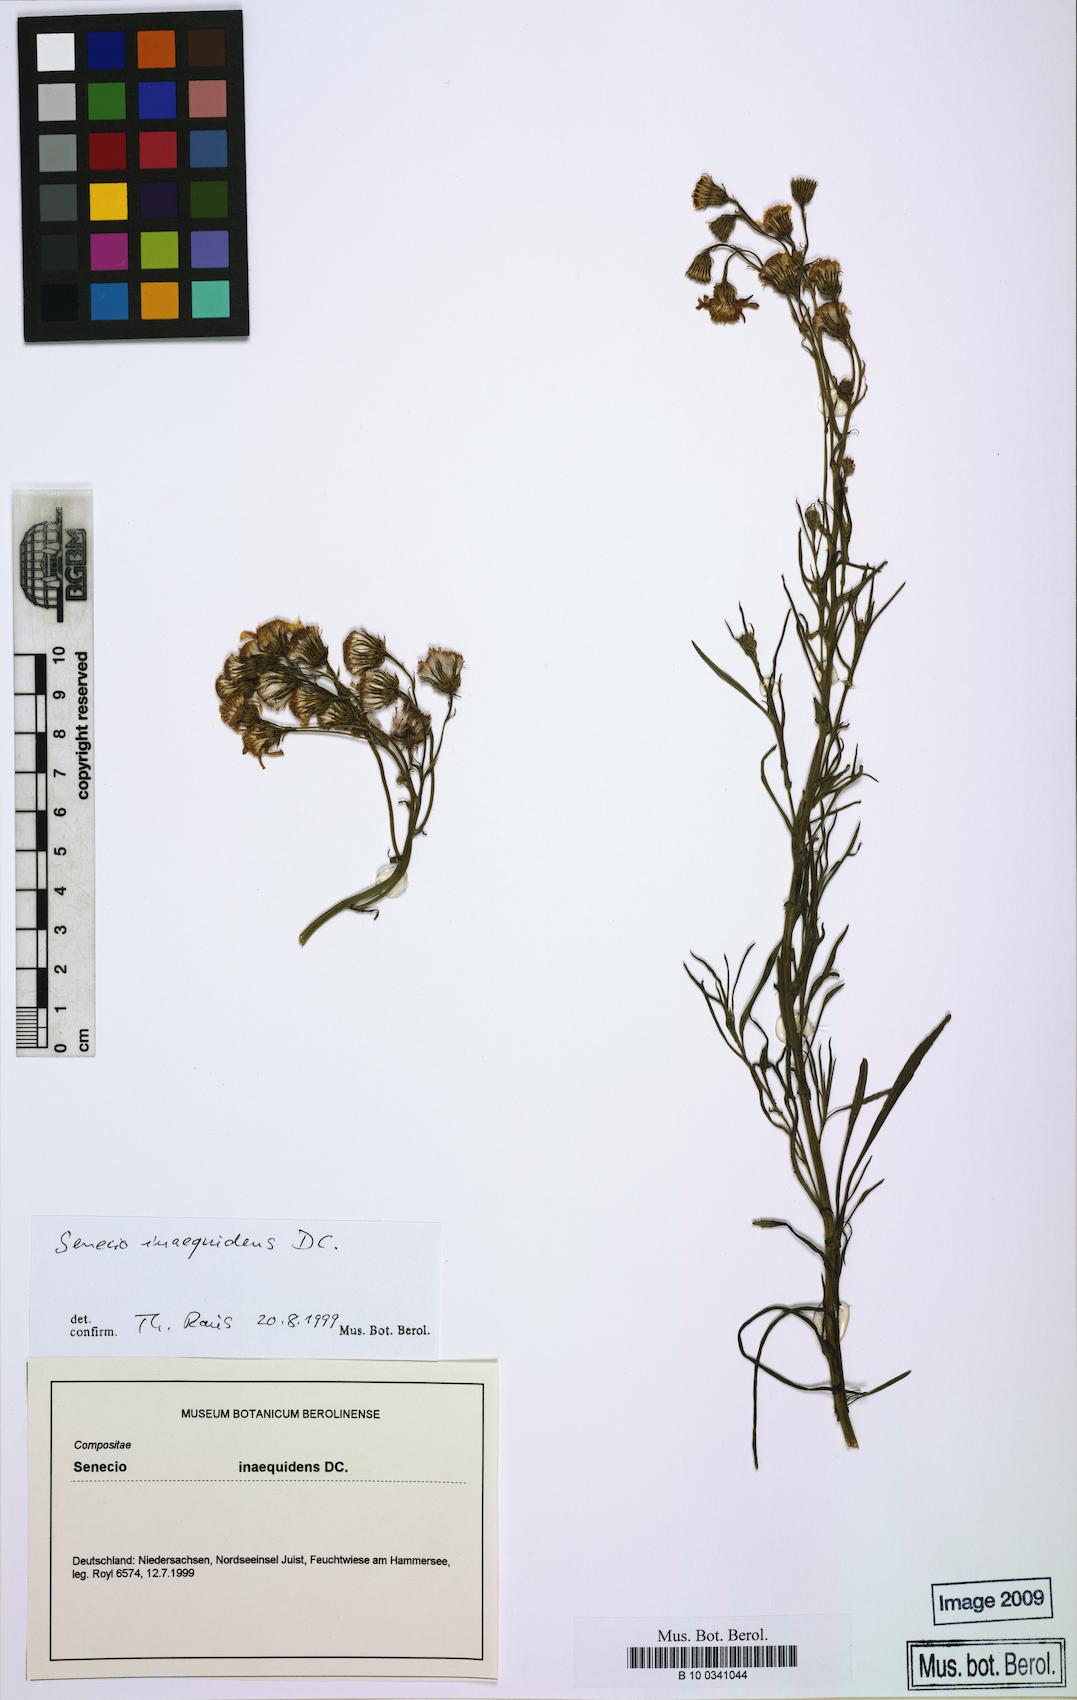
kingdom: Plantae
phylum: Tracheophyta
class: Magnoliopsida
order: Asterales
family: Asteraceae
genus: Senecio
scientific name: Senecio inaequidens
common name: Narrow-leaved ragwort
